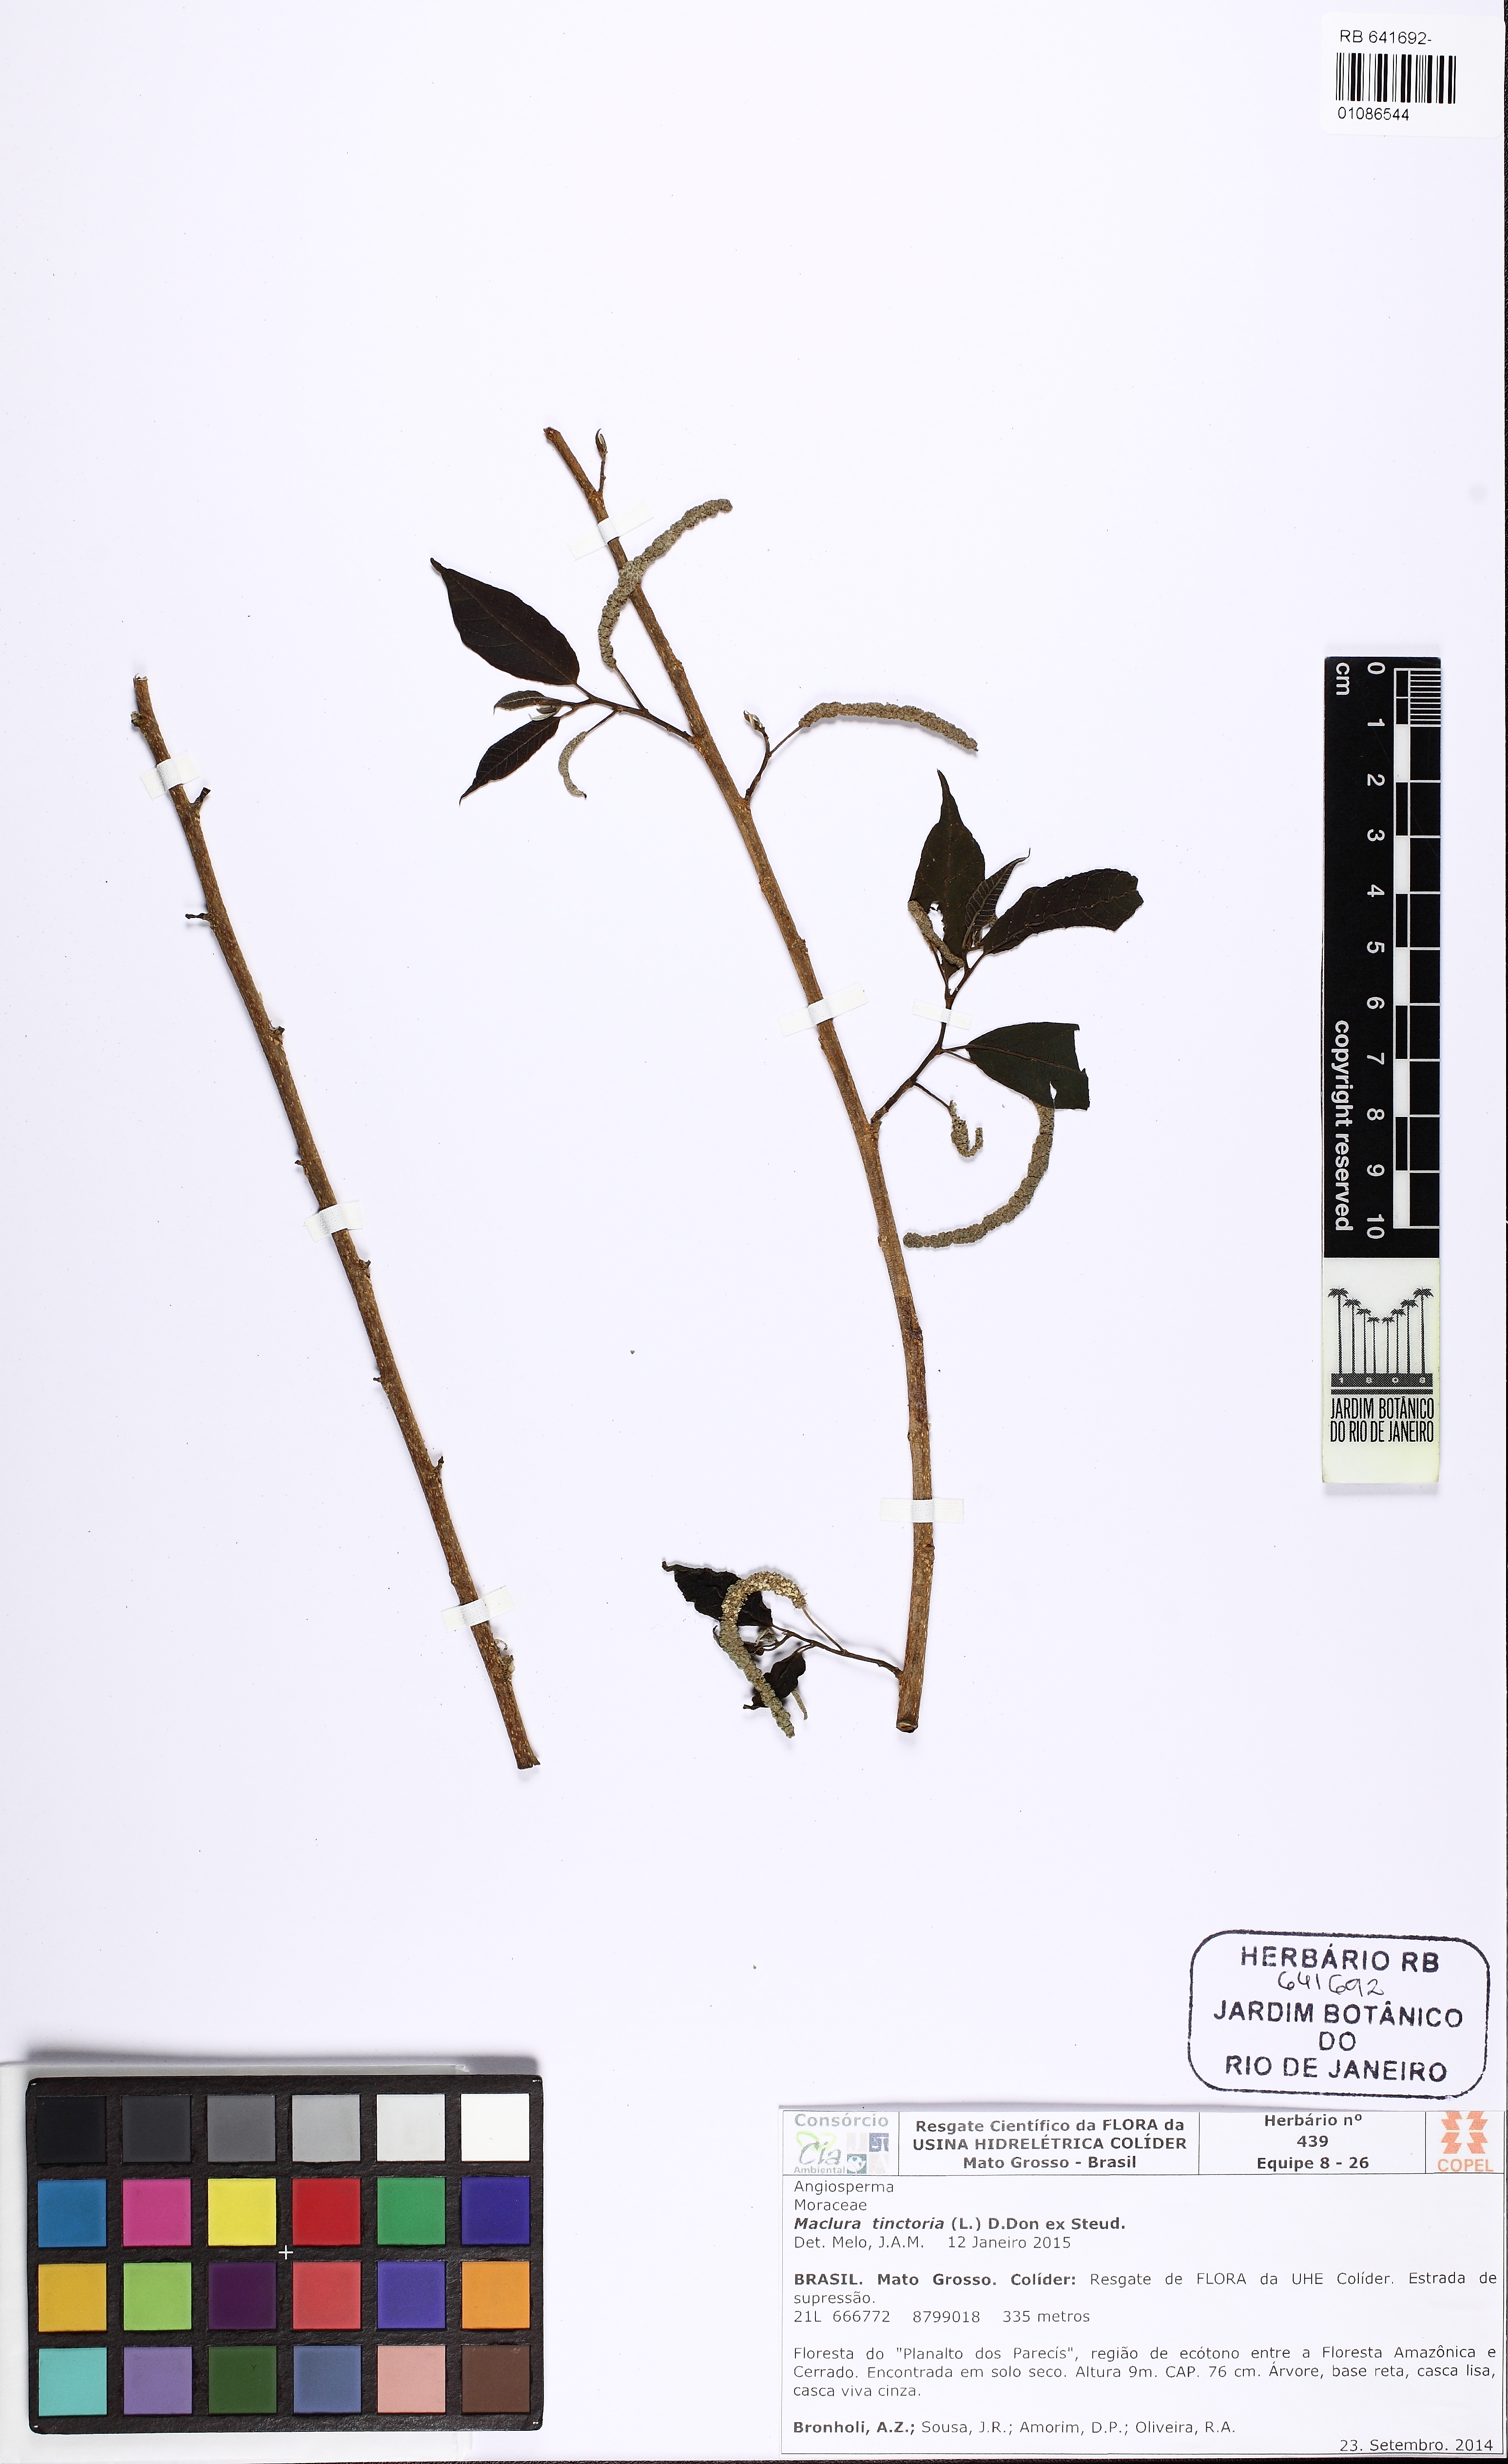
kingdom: Plantae
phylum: Tracheophyta
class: Magnoliopsida
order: Rosales
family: Moraceae
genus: Maclura
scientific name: Maclura tinctoria
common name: Old fustic
